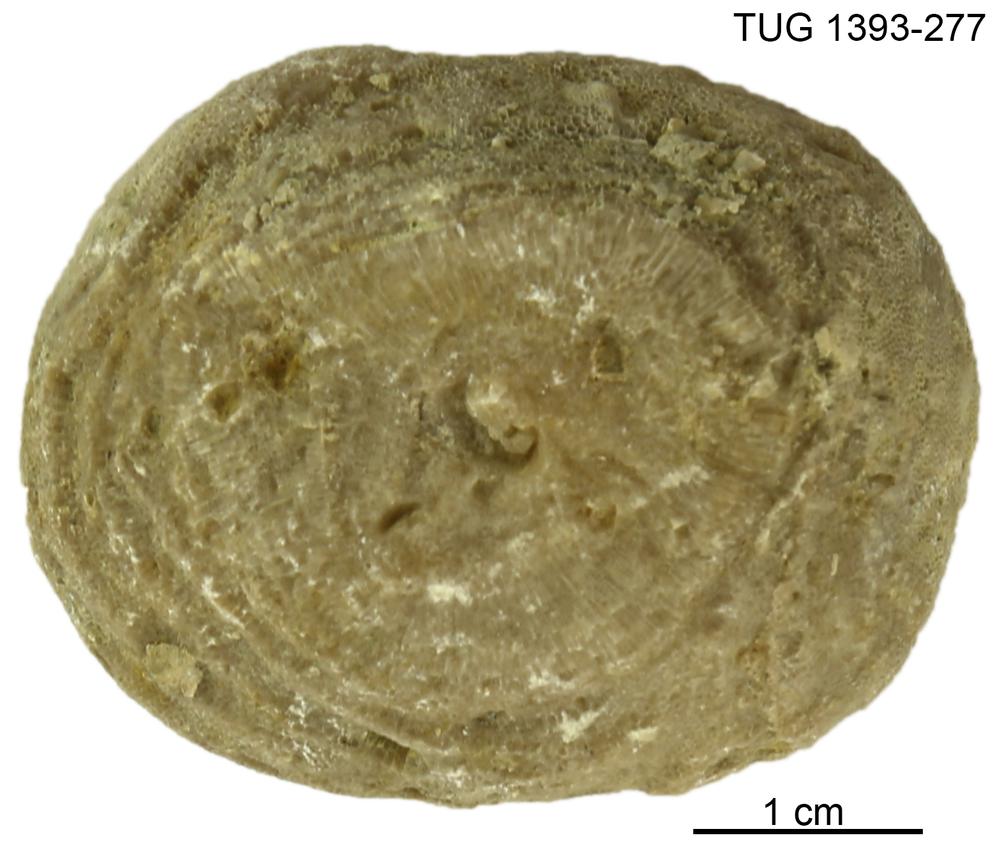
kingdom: Animalia
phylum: Bryozoa
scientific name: Bryozoa
